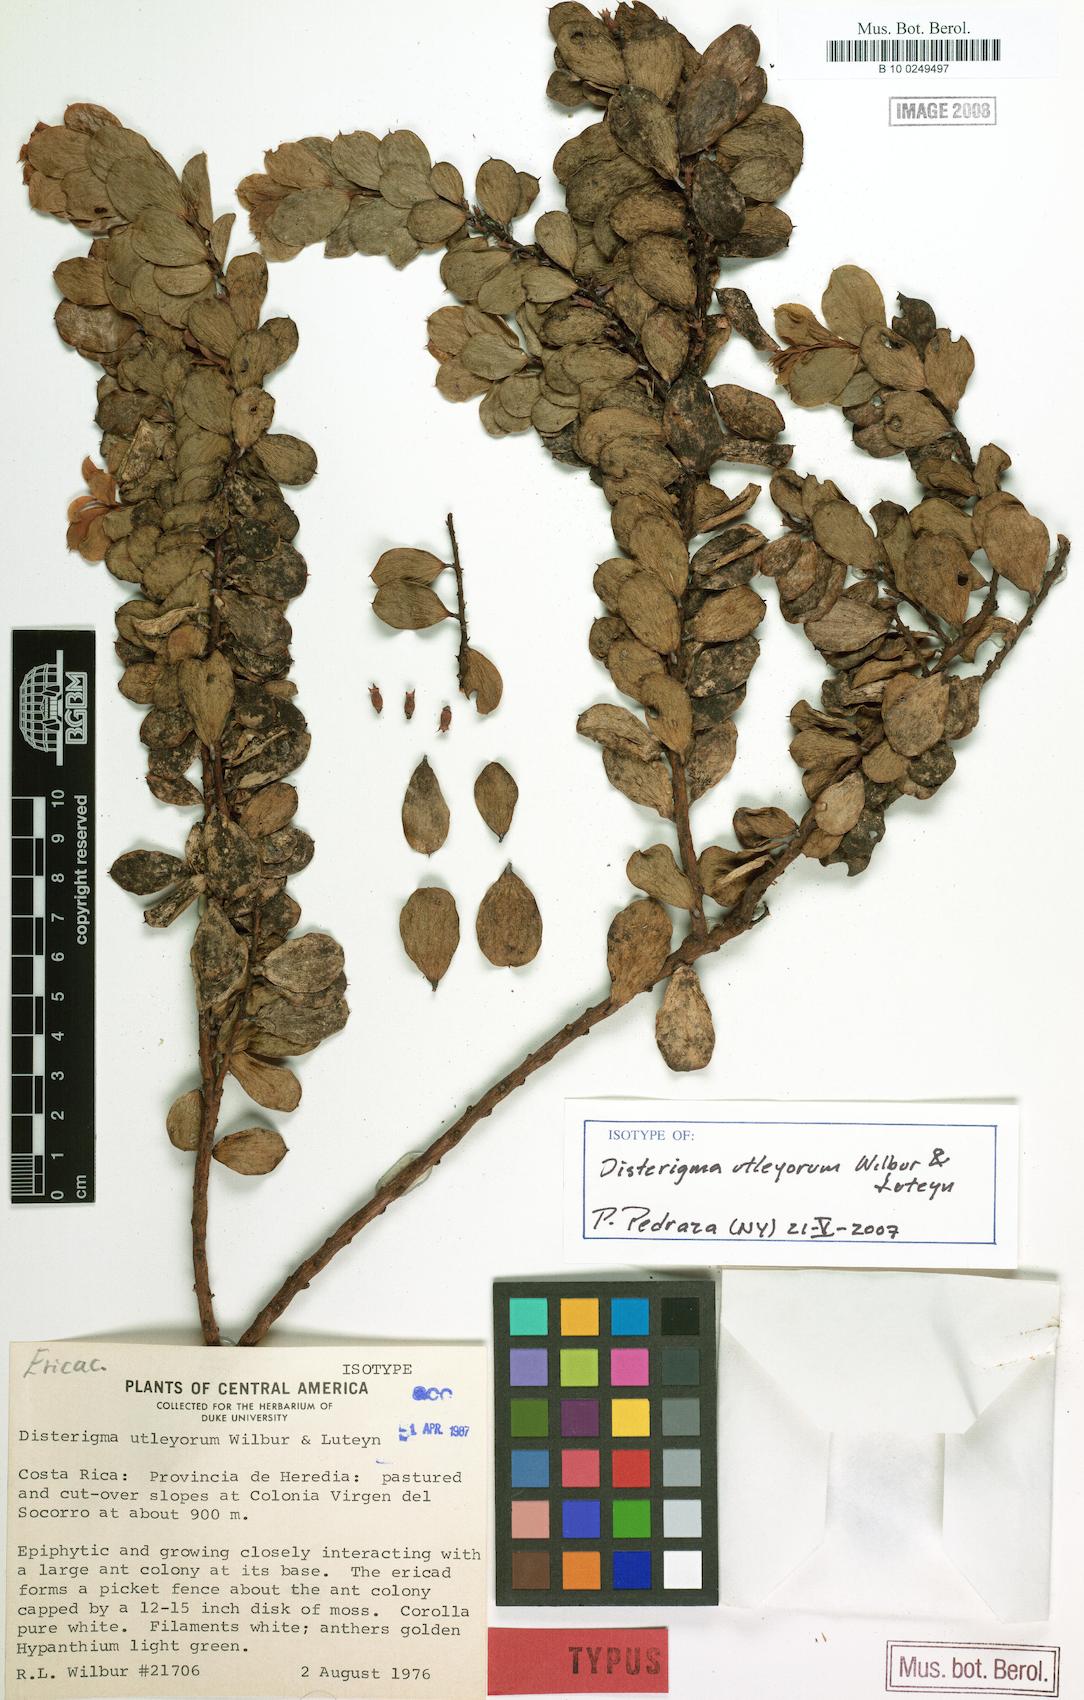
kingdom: Plantae
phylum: Tracheophyta
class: Magnoliopsida
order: Ericales
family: Ericaceae
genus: Disterigma
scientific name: Disterigma utleyorum
